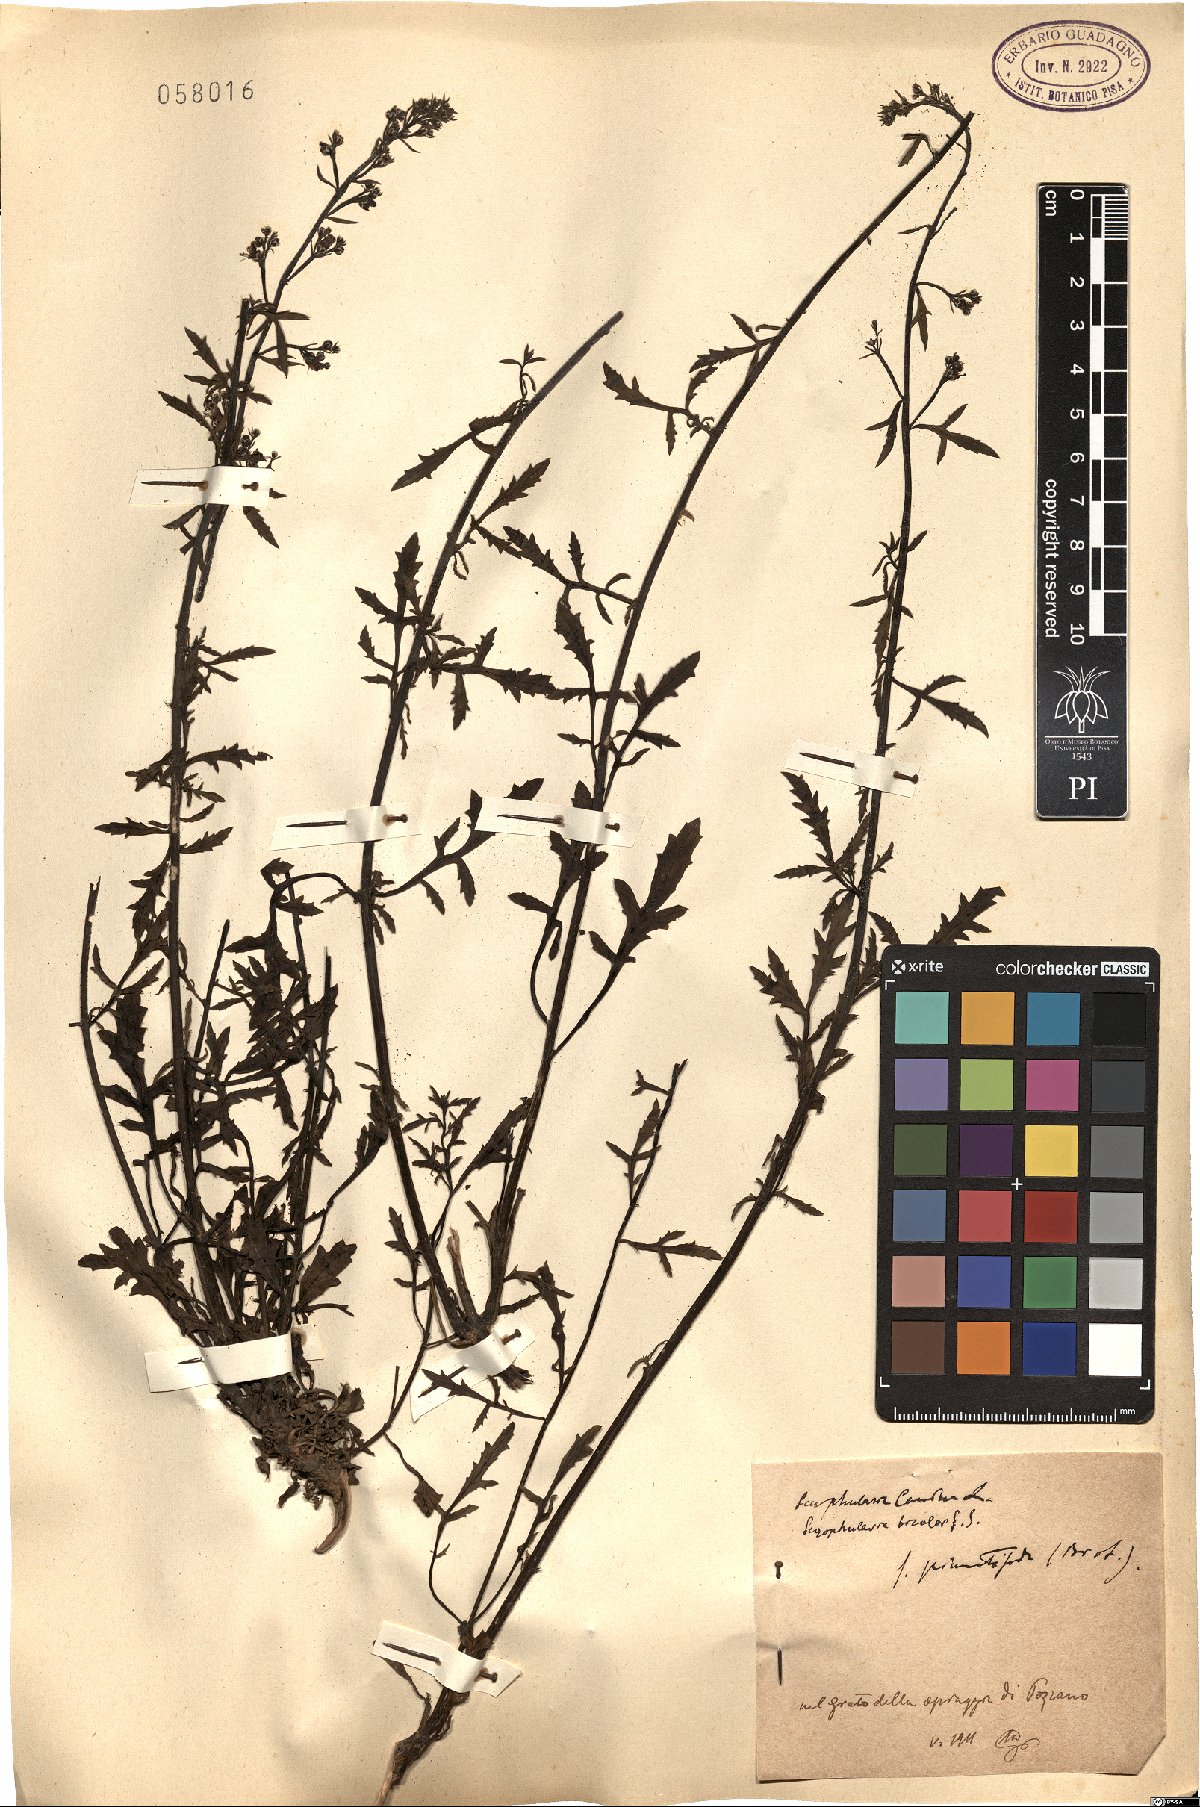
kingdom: Plantae
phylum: Tracheophyta
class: Magnoliopsida
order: Lamiales
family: Scrophulariaceae
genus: Scrophularia
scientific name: Scrophularia canina
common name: French figwort
